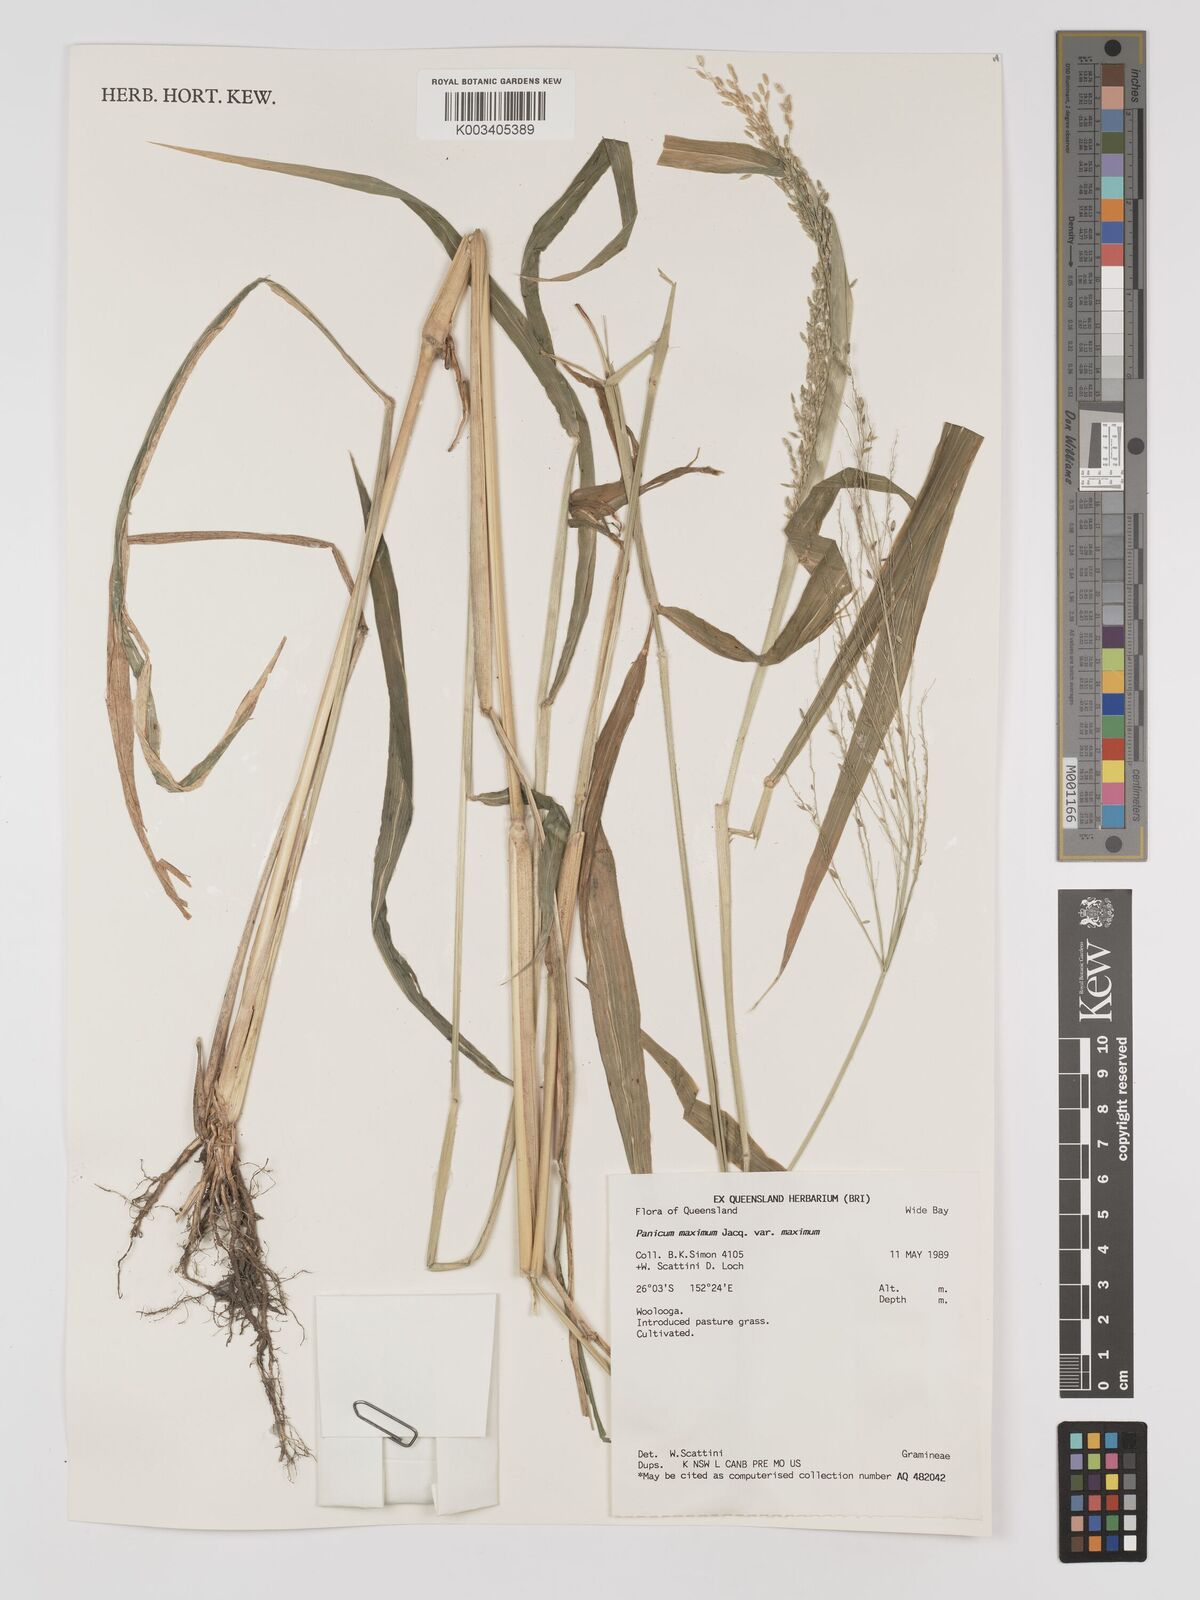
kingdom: Plantae
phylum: Tracheophyta
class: Liliopsida
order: Poales
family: Poaceae
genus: Megathyrsus
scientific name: Megathyrsus maximus
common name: Guineagrass
